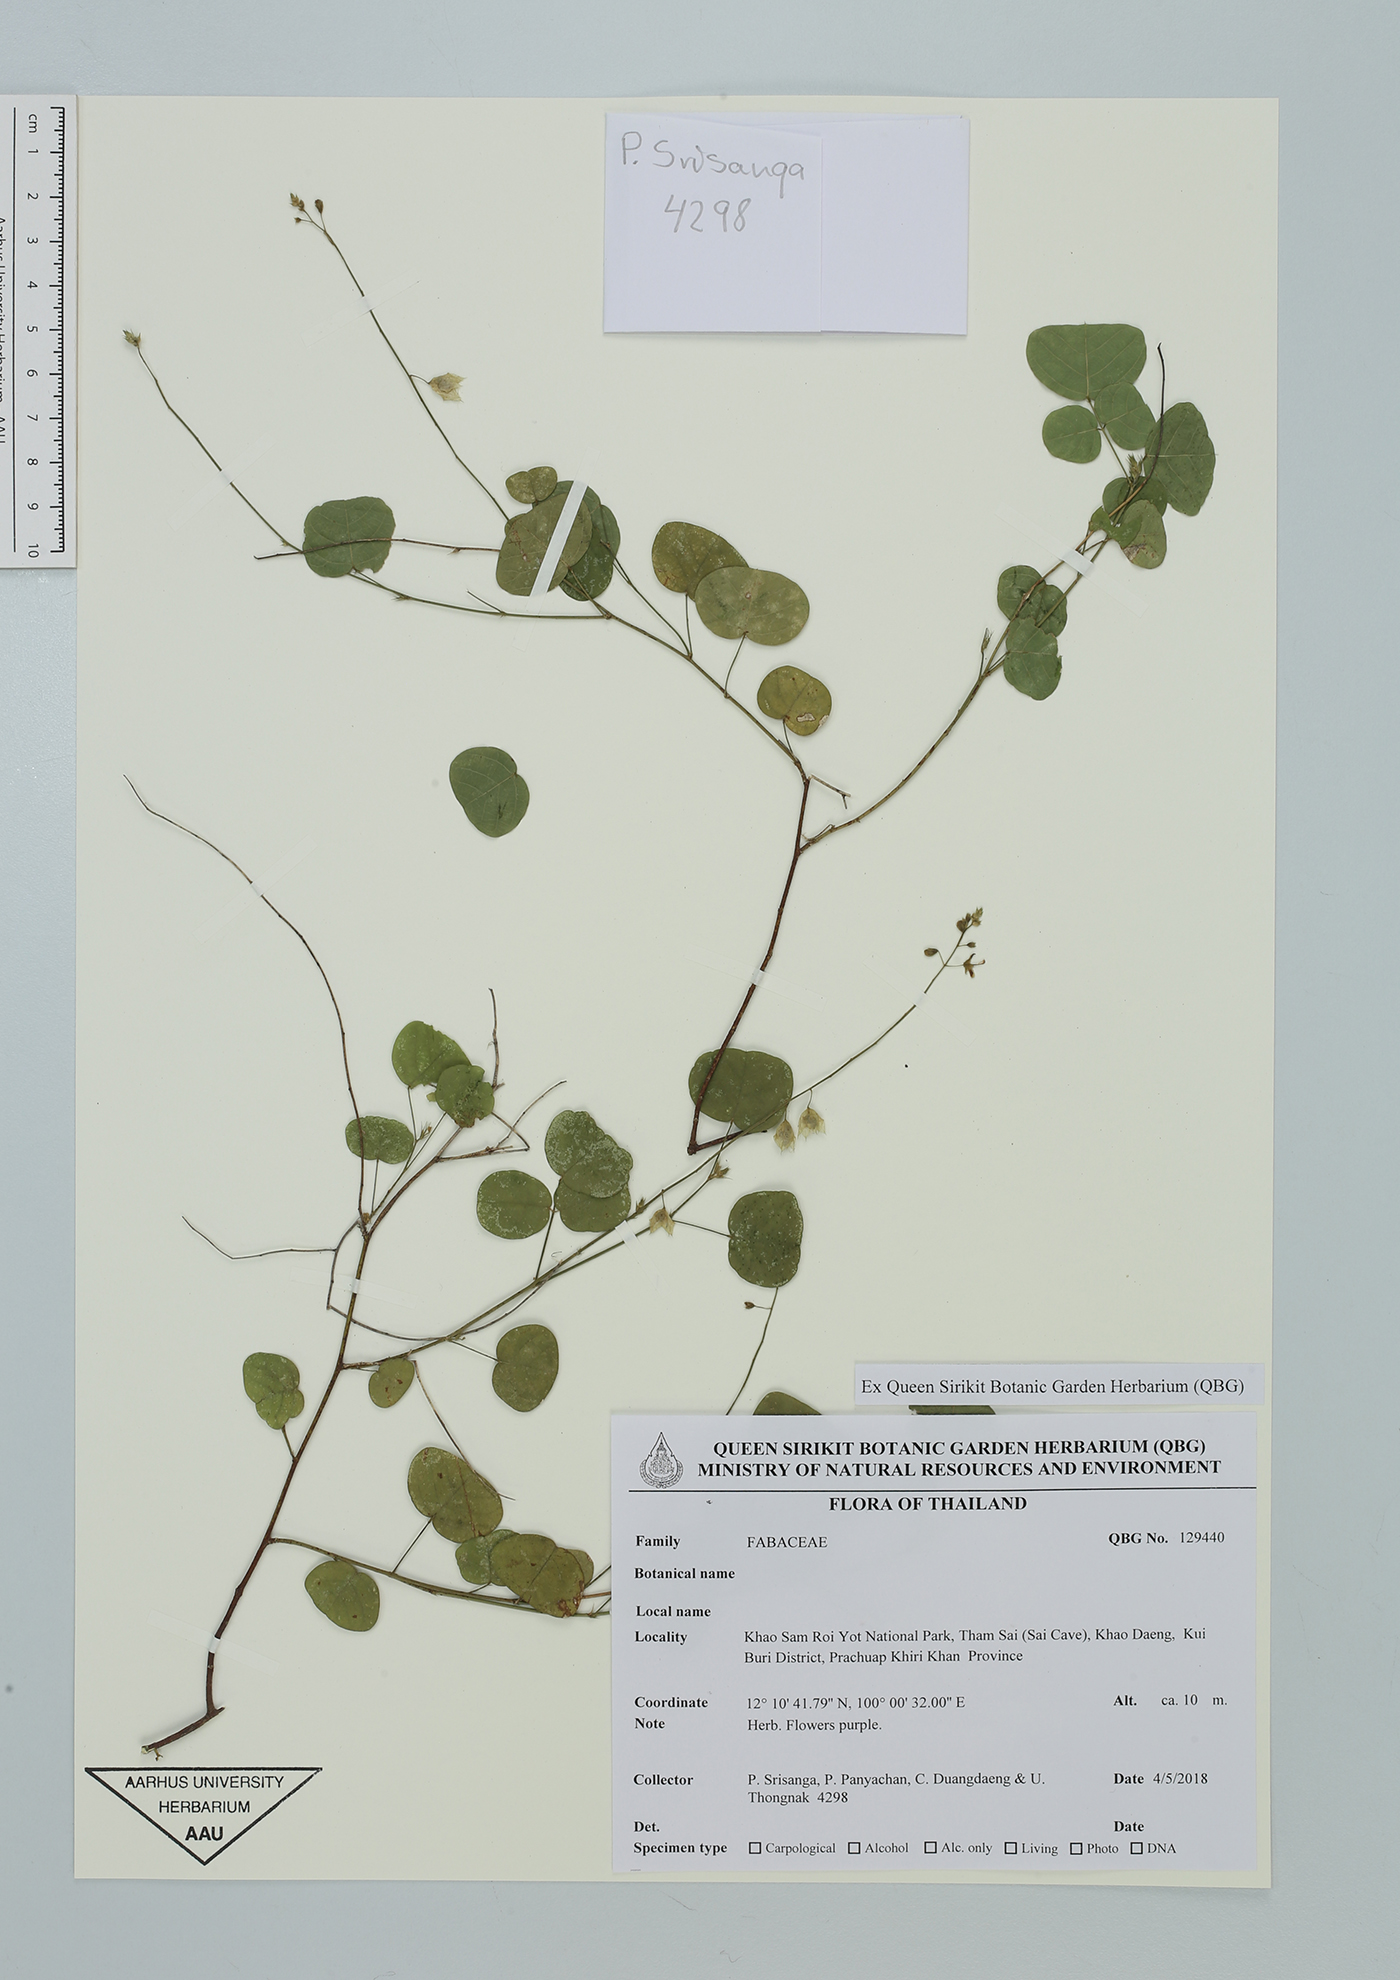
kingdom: Plantae
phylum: Tracheophyta
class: Magnoliopsida
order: Fabales
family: Fabaceae
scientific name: Fabaceae
